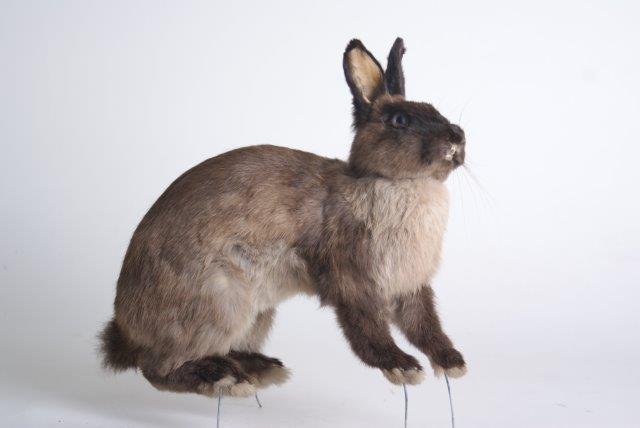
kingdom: Animalia
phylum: Chordata
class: Mammalia
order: Lagomorpha
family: Leporidae
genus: Oryctolagus
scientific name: Oryctolagus cuniculus
